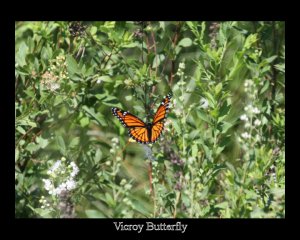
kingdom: Animalia
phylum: Arthropoda
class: Insecta
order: Lepidoptera
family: Nymphalidae
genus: Limenitis
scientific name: Limenitis archippus
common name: Viceroy
